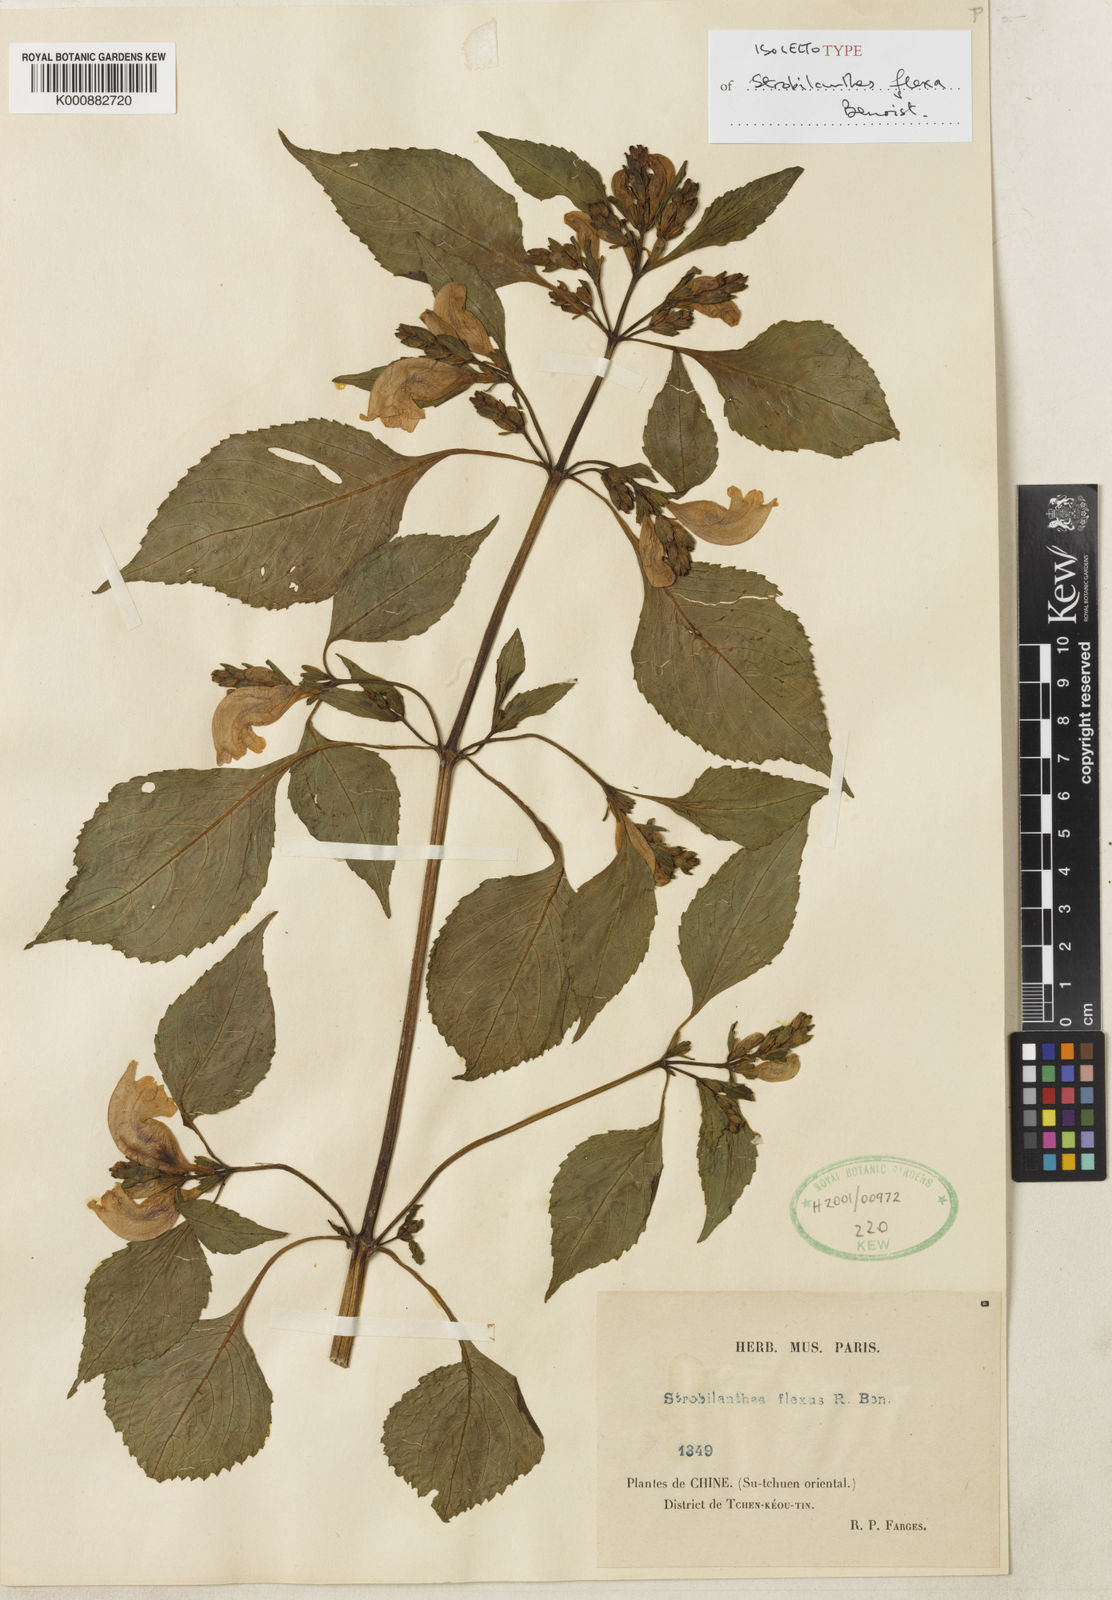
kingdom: Plantae
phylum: Tracheophyta
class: Magnoliopsida
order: Lamiales
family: Acanthaceae
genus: Strobilanthes
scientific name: Strobilanthes versicolor
